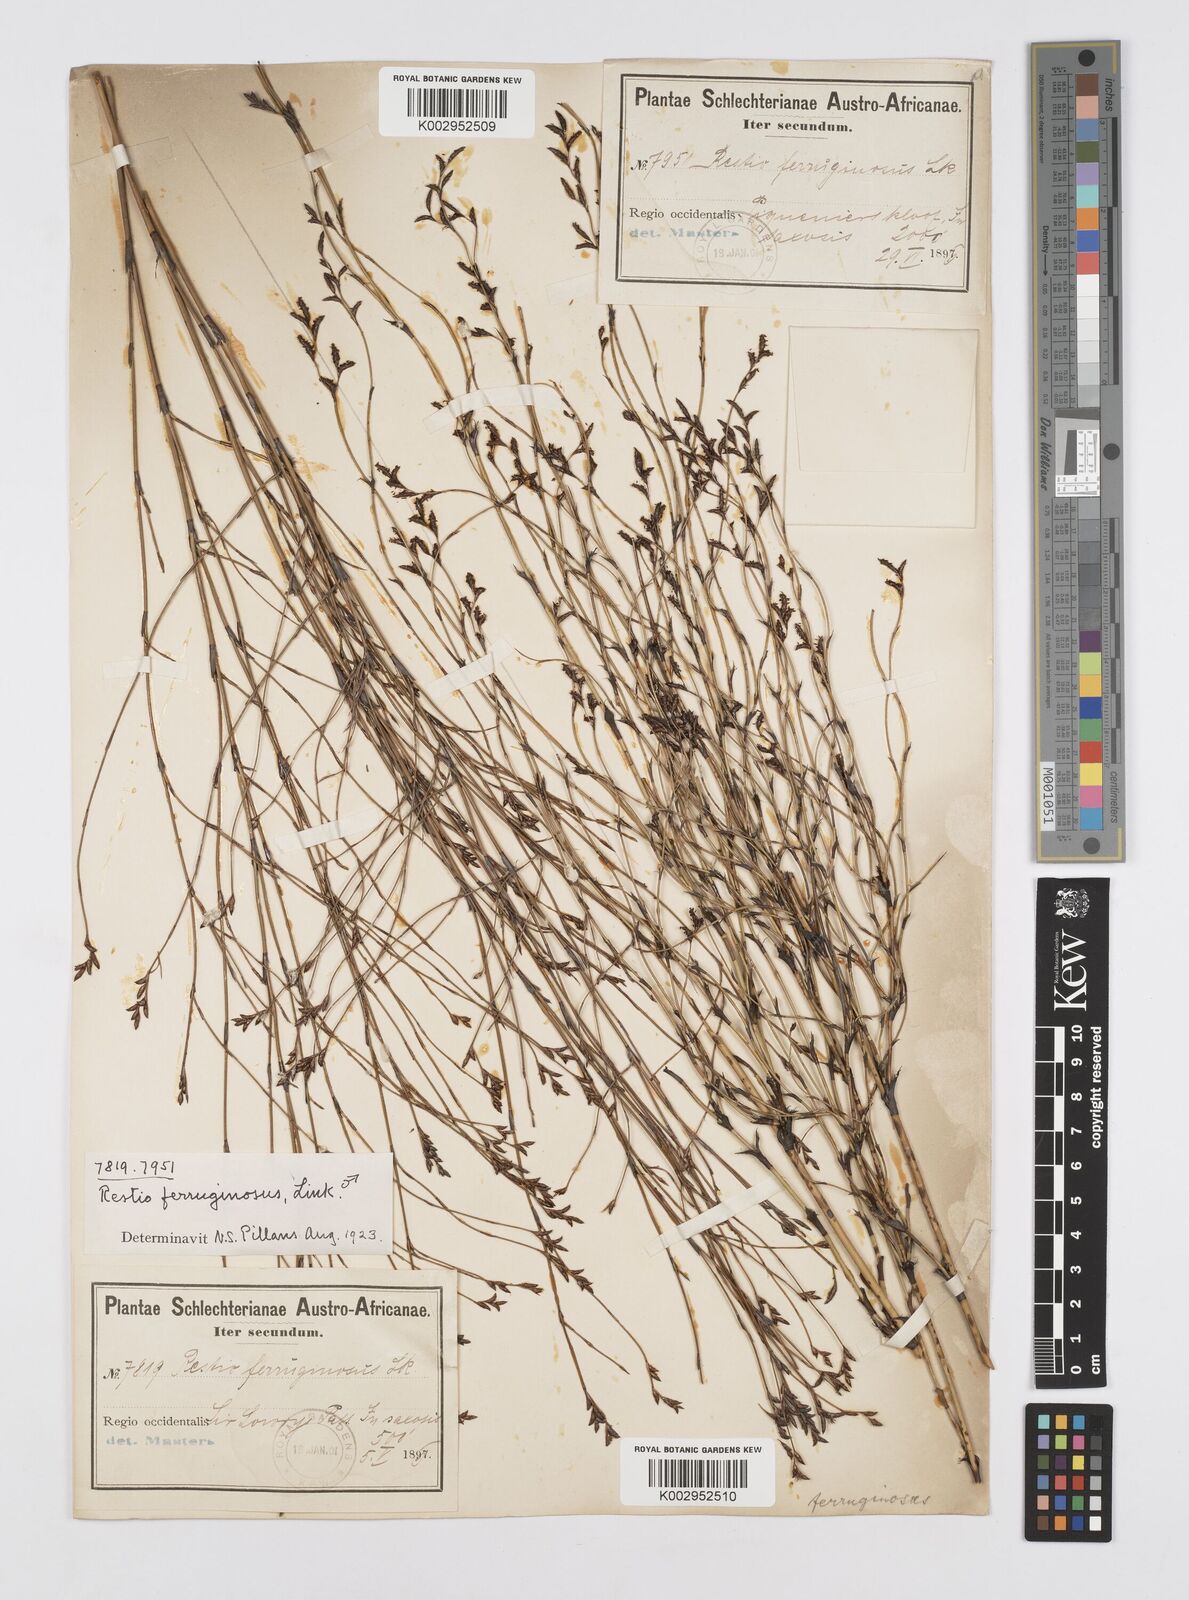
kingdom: Plantae
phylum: Tracheophyta
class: Liliopsida
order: Poales
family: Restionaceae
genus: Restio
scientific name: Restio gaudichaudianus
